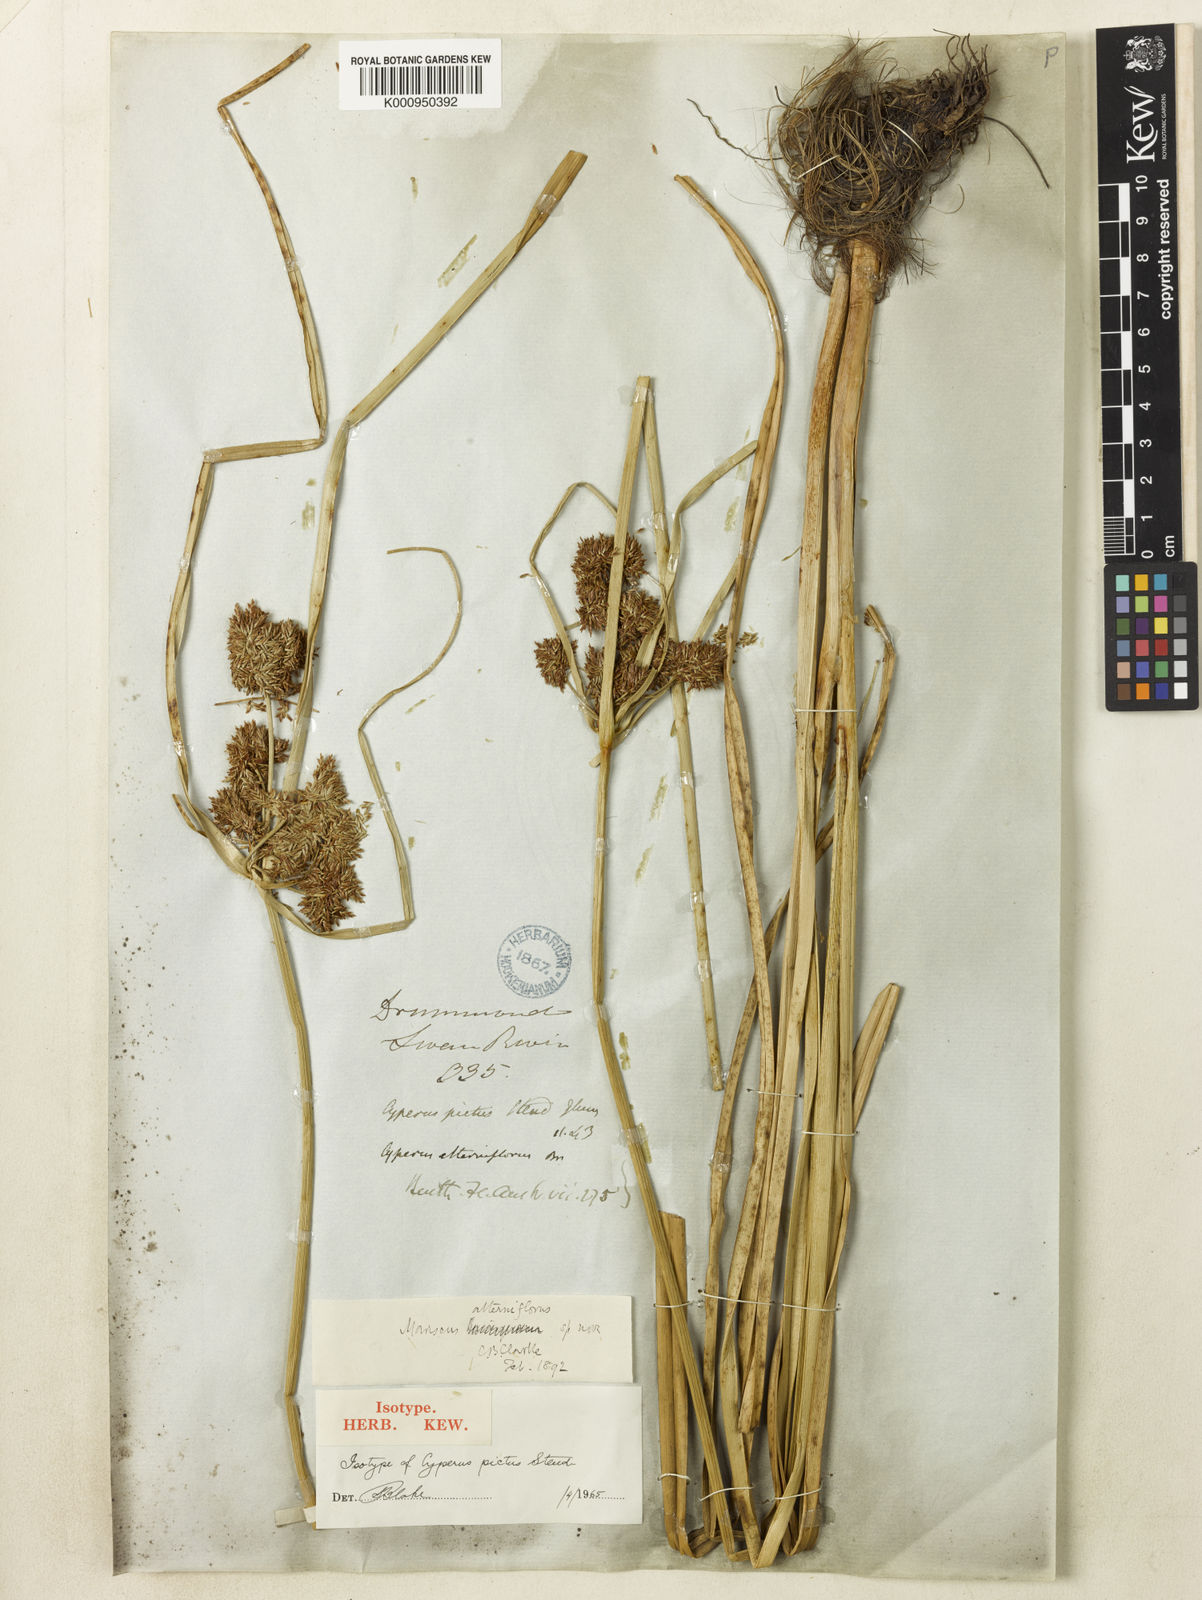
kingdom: Plantae
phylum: Tracheophyta
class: Liliopsida
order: Poales
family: Cyperaceae
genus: Cyperus
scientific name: Cyperus alterniflorus
